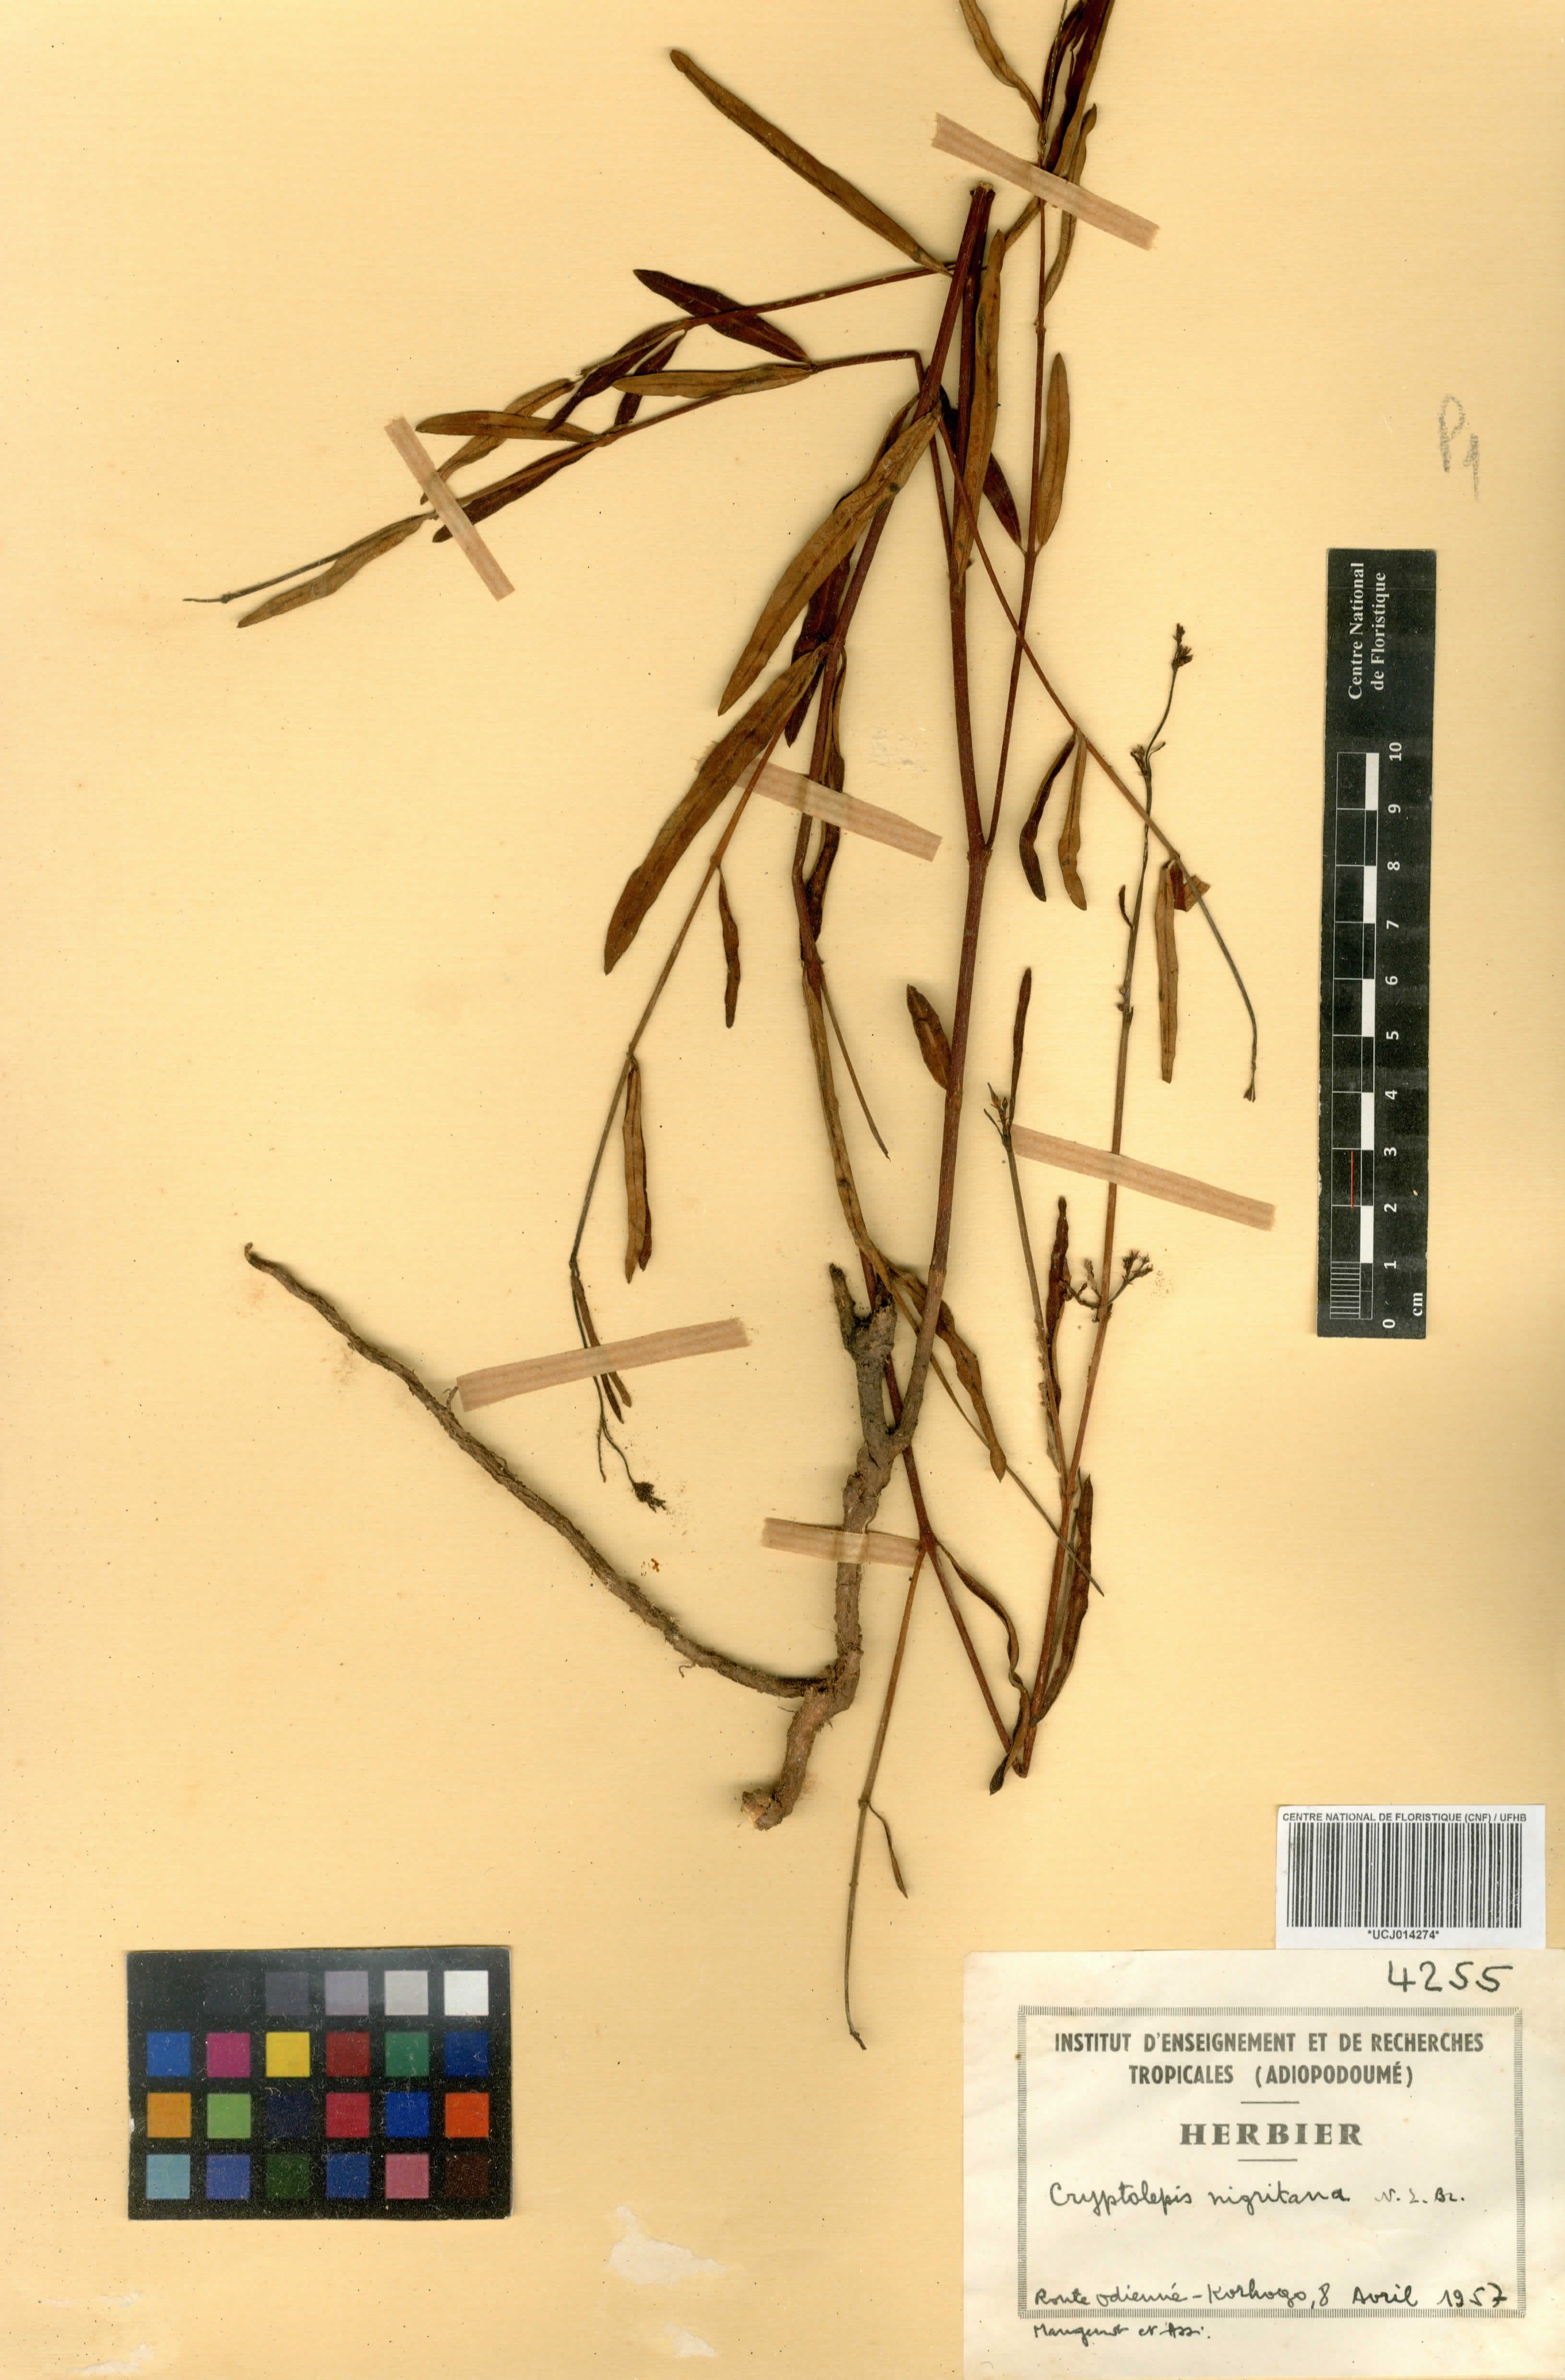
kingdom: Plantae
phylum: Tracheophyta
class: Magnoliopsida
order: Gentianales
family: Apocynaceae
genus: Cryptolepis
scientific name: Cryptolepis oblongifolia
